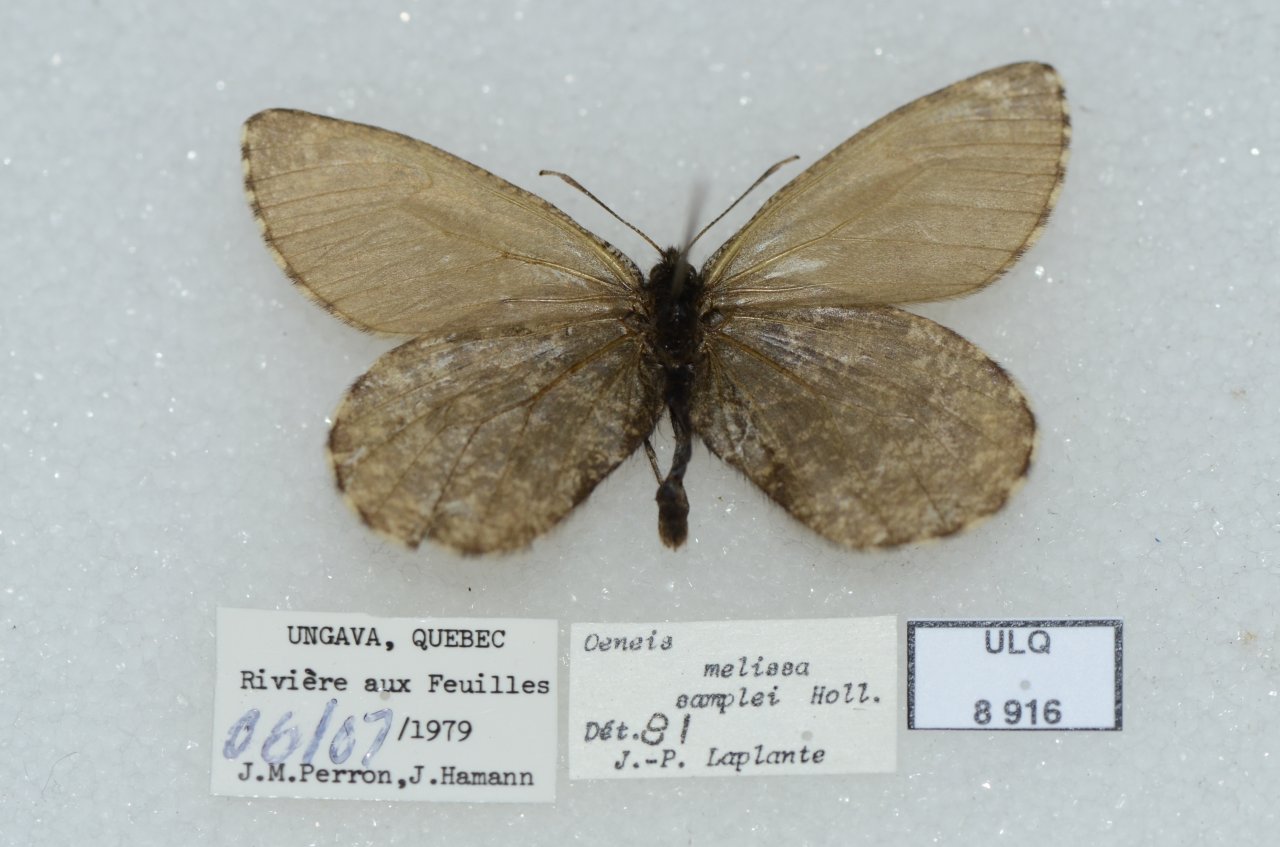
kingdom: Animalia
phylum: Arthropoda
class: Insecta
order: Lepidoptera
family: Nymphalidae
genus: Oeneis
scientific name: Oeneis melissa
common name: Melissa Arctic
